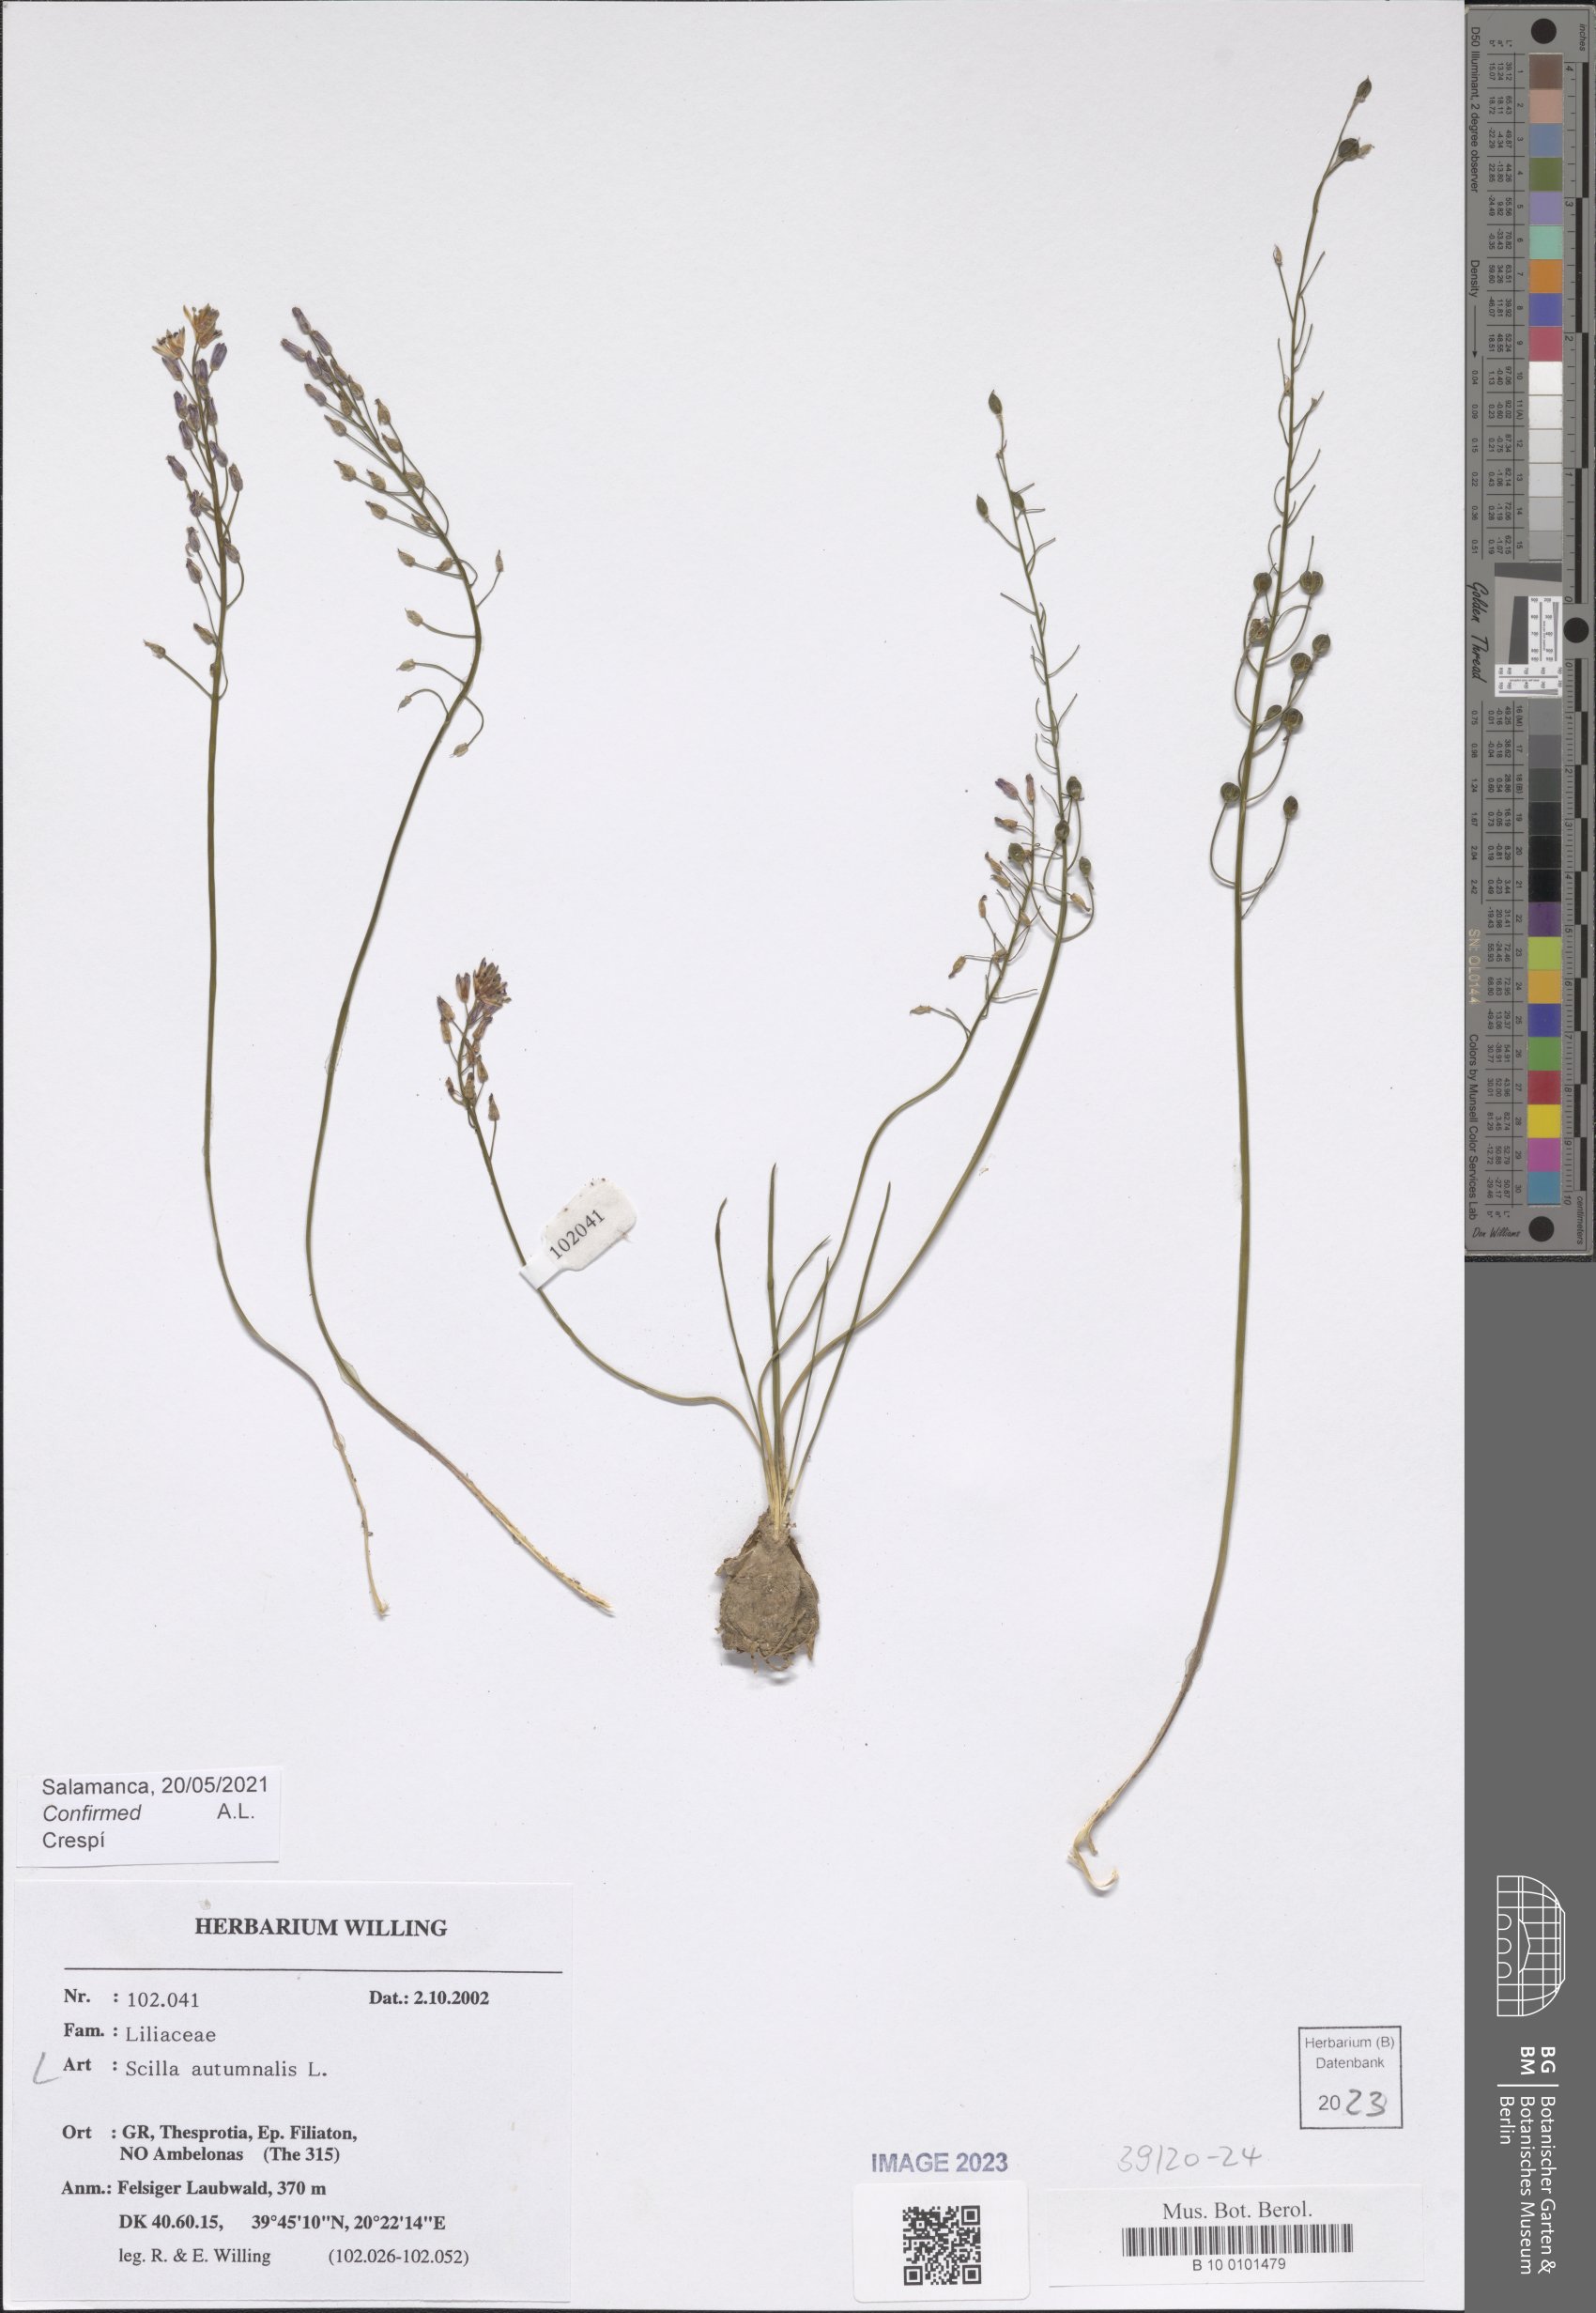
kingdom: Plantae
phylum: Tracheophyta
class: Liliopsida
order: Asparagales
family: Asparagaceae
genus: Prospero
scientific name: Prospero autumnale
